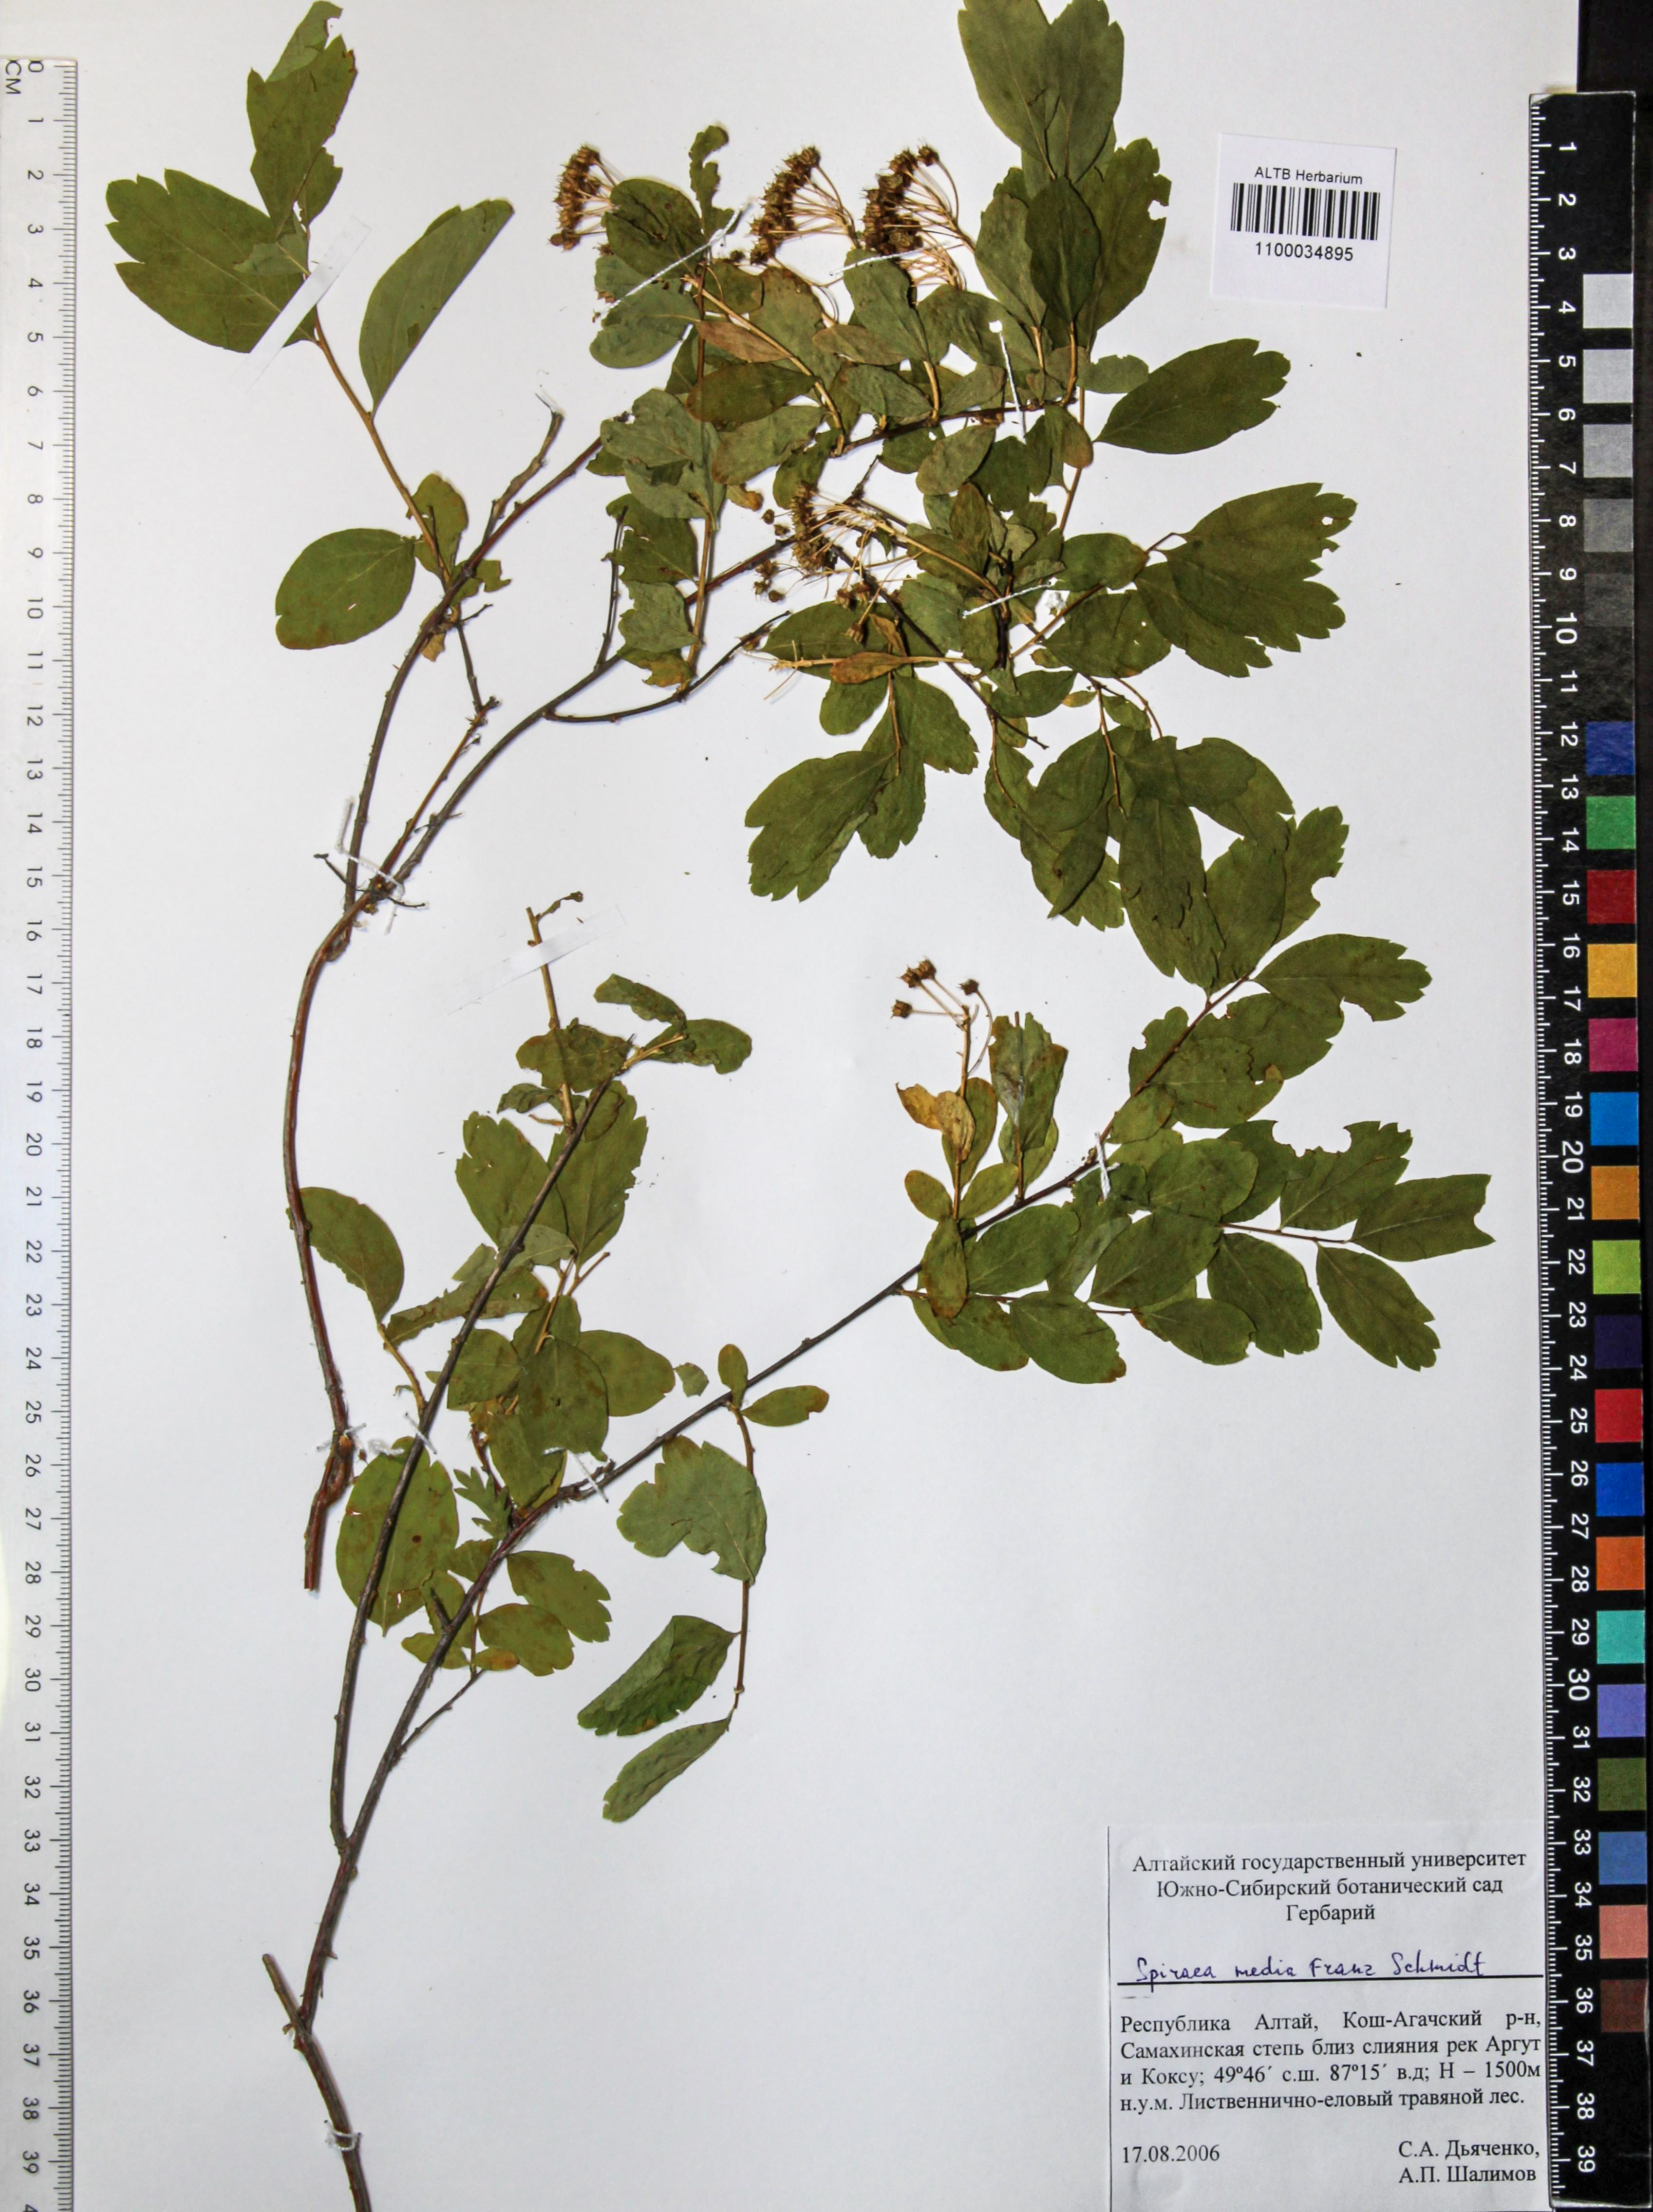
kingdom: Plantae
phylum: Tracheophyta
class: Magnoliopsida
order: Rosales
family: Rosaceae
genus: Spiraea
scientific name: Spiraea media
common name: Russian spiraea
